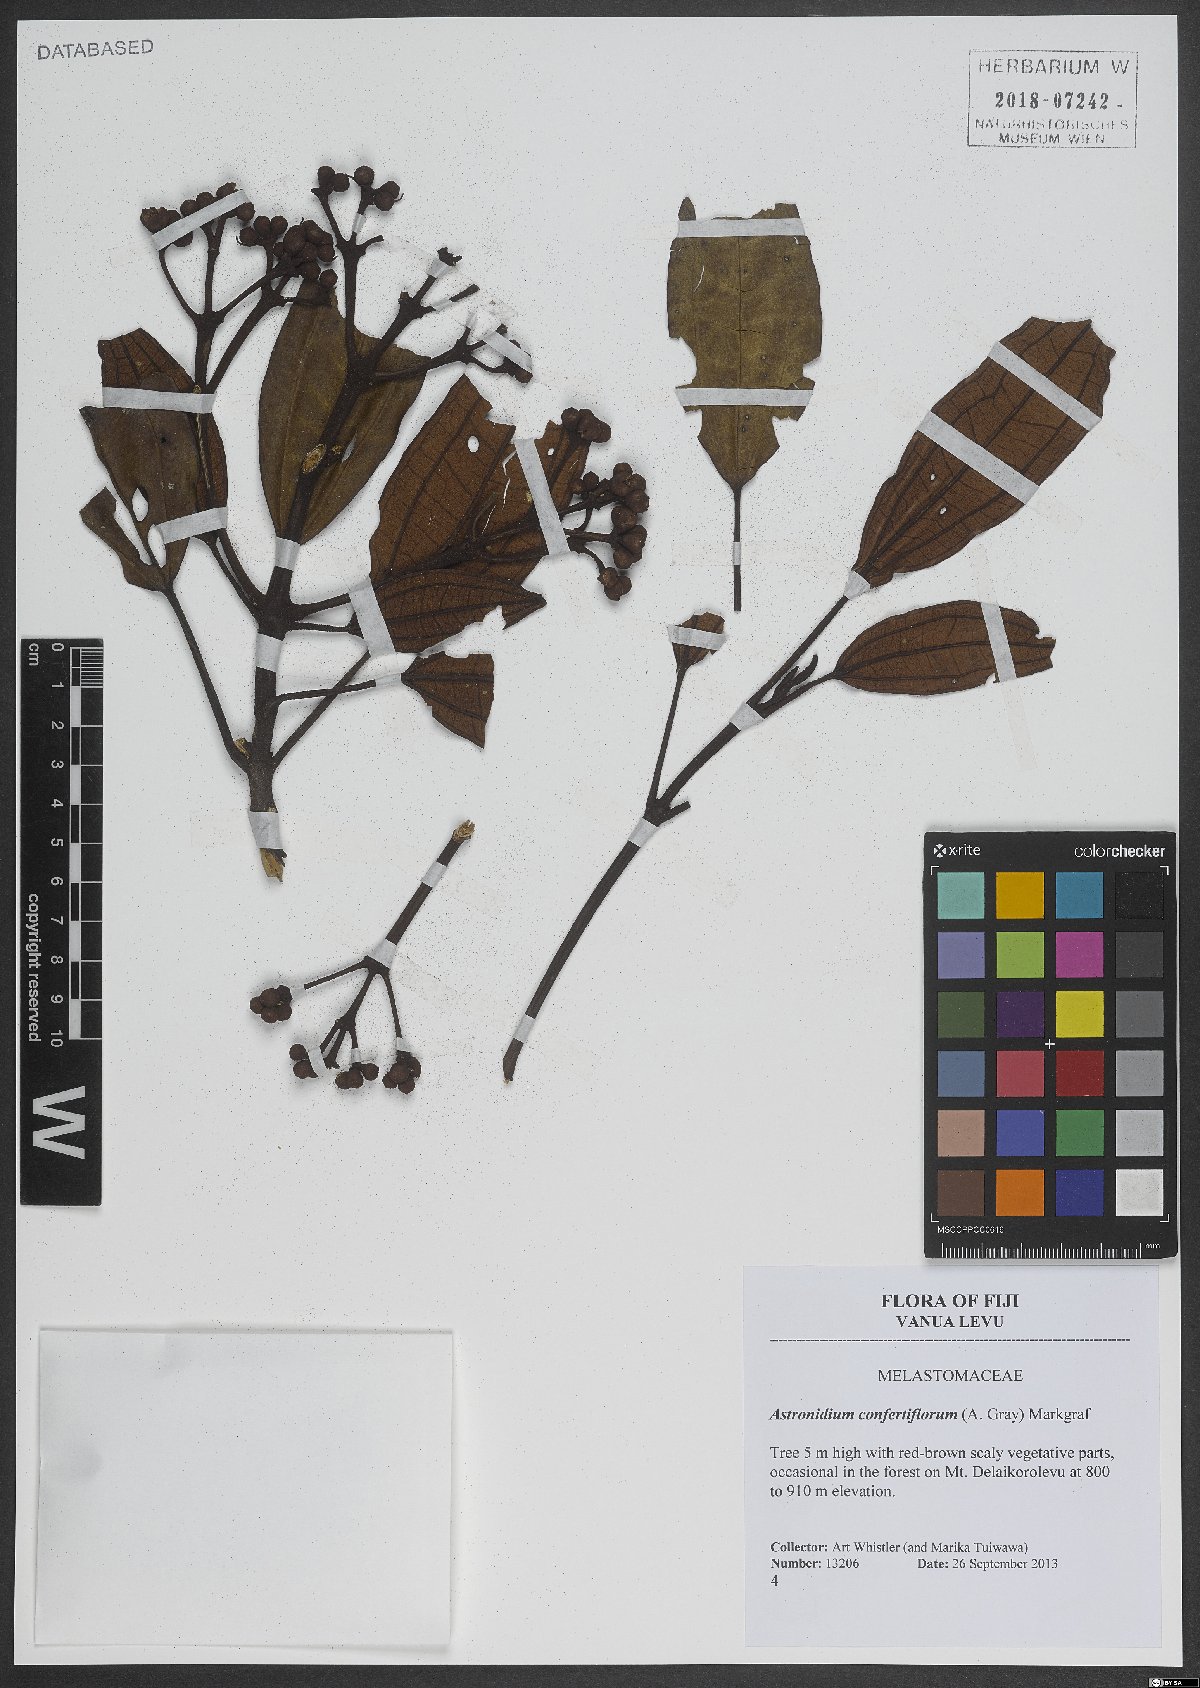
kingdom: Plantae
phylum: Tracheophyta
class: Magnoliopsida
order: Myrtales
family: Melastomataceae
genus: Astronidium
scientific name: Astronidium confertiflorum
